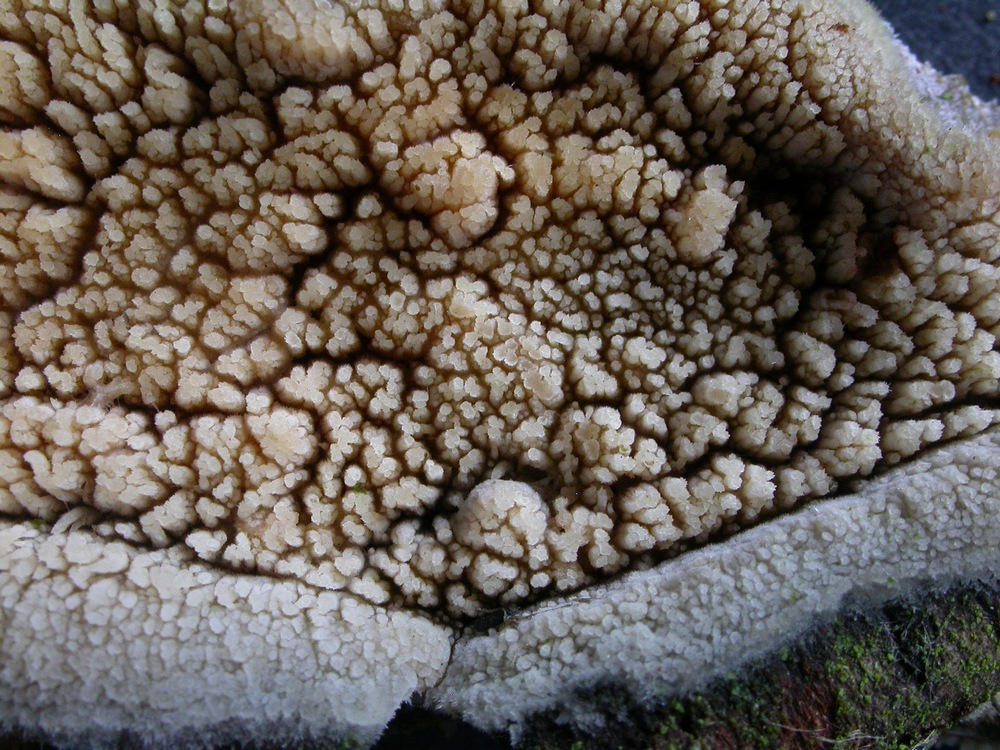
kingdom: Fungi
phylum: Basidiomycota
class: Agaricomycetes
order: Hymenochaetales
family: Hyphodontiaceae
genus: Hyphodontia
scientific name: Hyphodontia barba-jovis
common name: skægget tandsvamp
